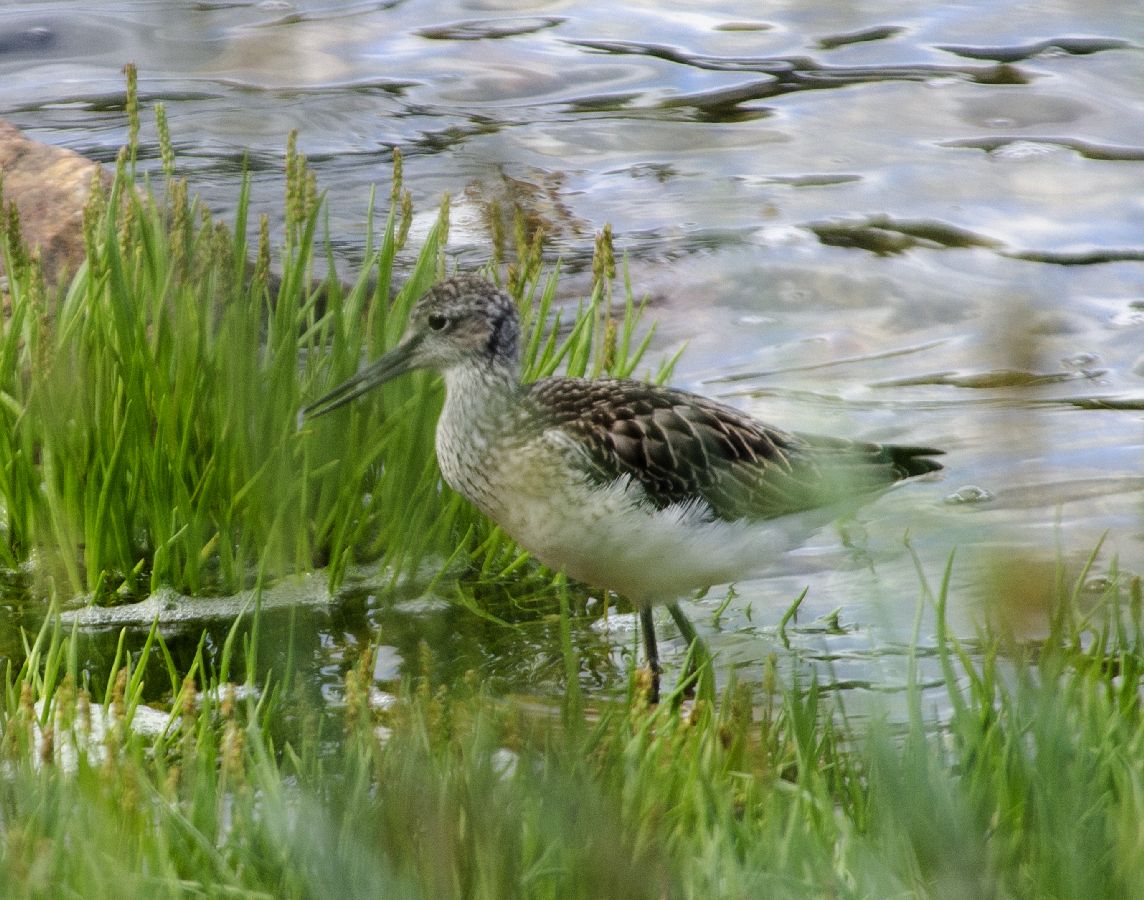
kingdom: Animalia
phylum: Chordata
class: Aves
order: Charadriiformes
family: Scolopacidae
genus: Tringa
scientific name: Tringa nebularia
